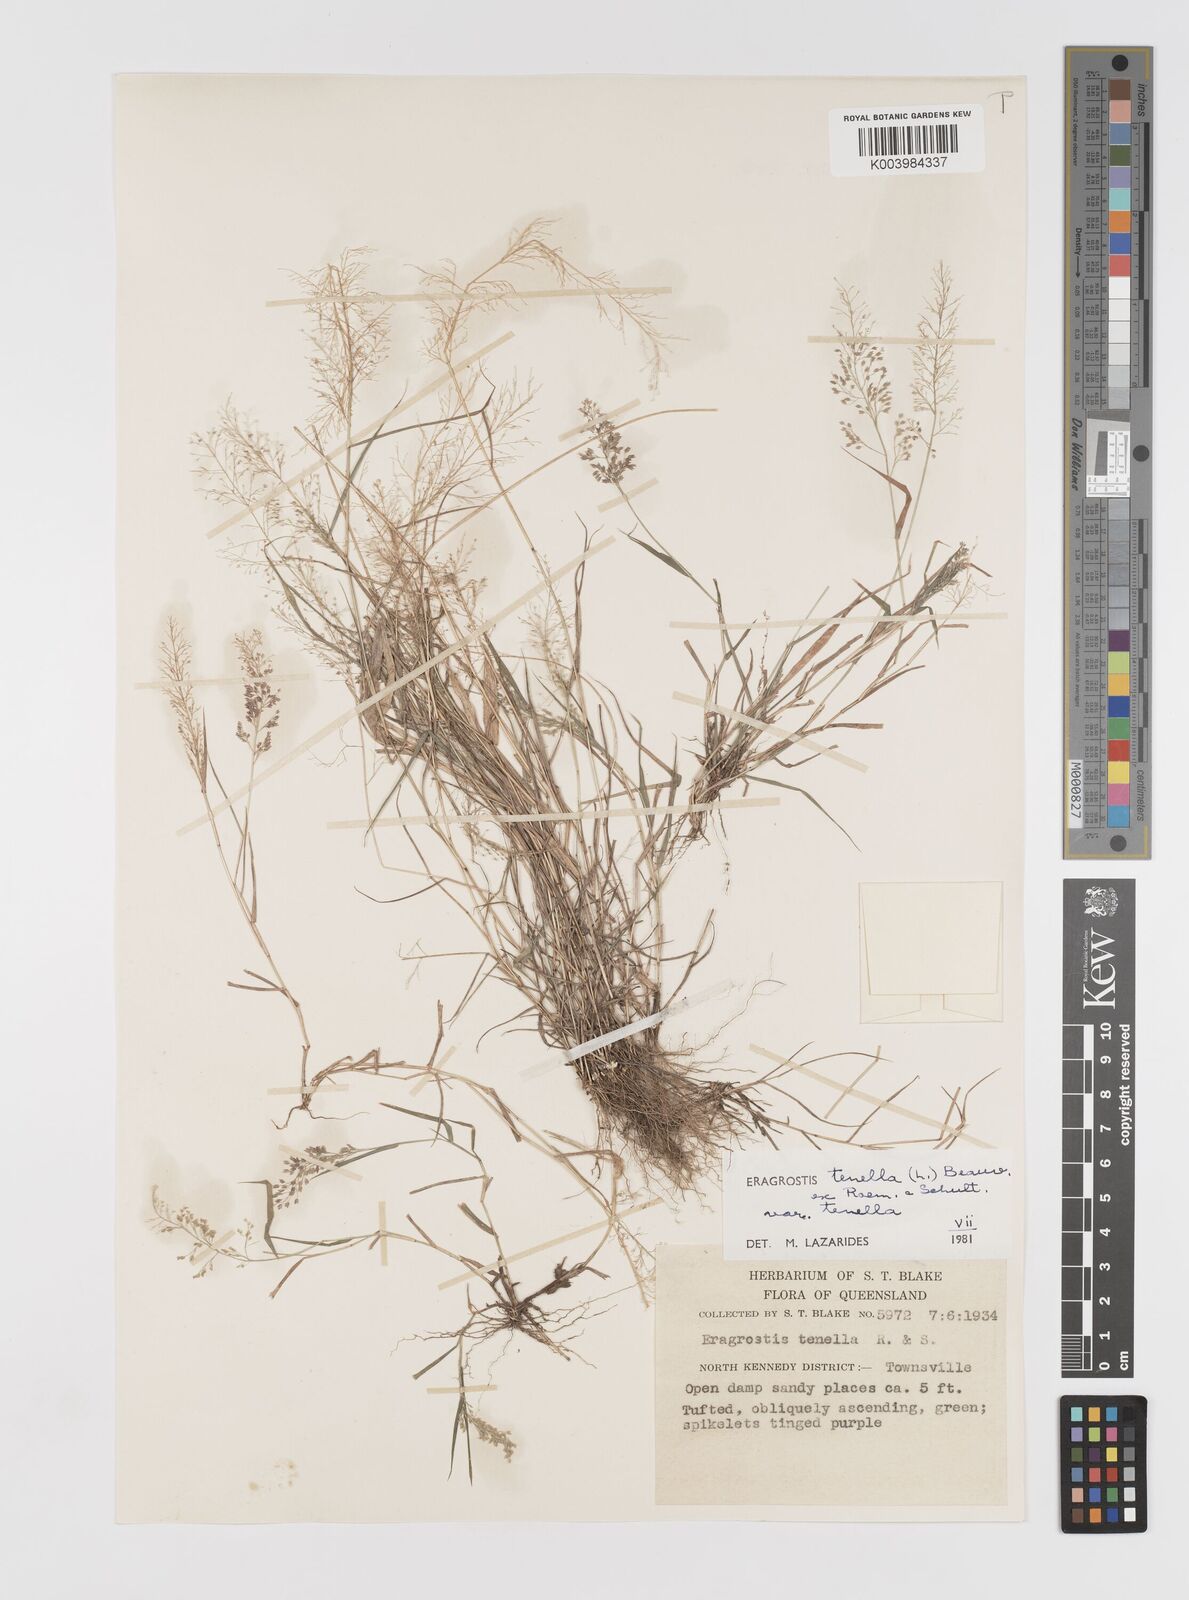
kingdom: Plantae
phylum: Tracheophyta
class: Liliopsida
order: Poales
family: Poaceae
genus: Eragrostis
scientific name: Eragrostis tenella
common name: Japanese lovegrass
